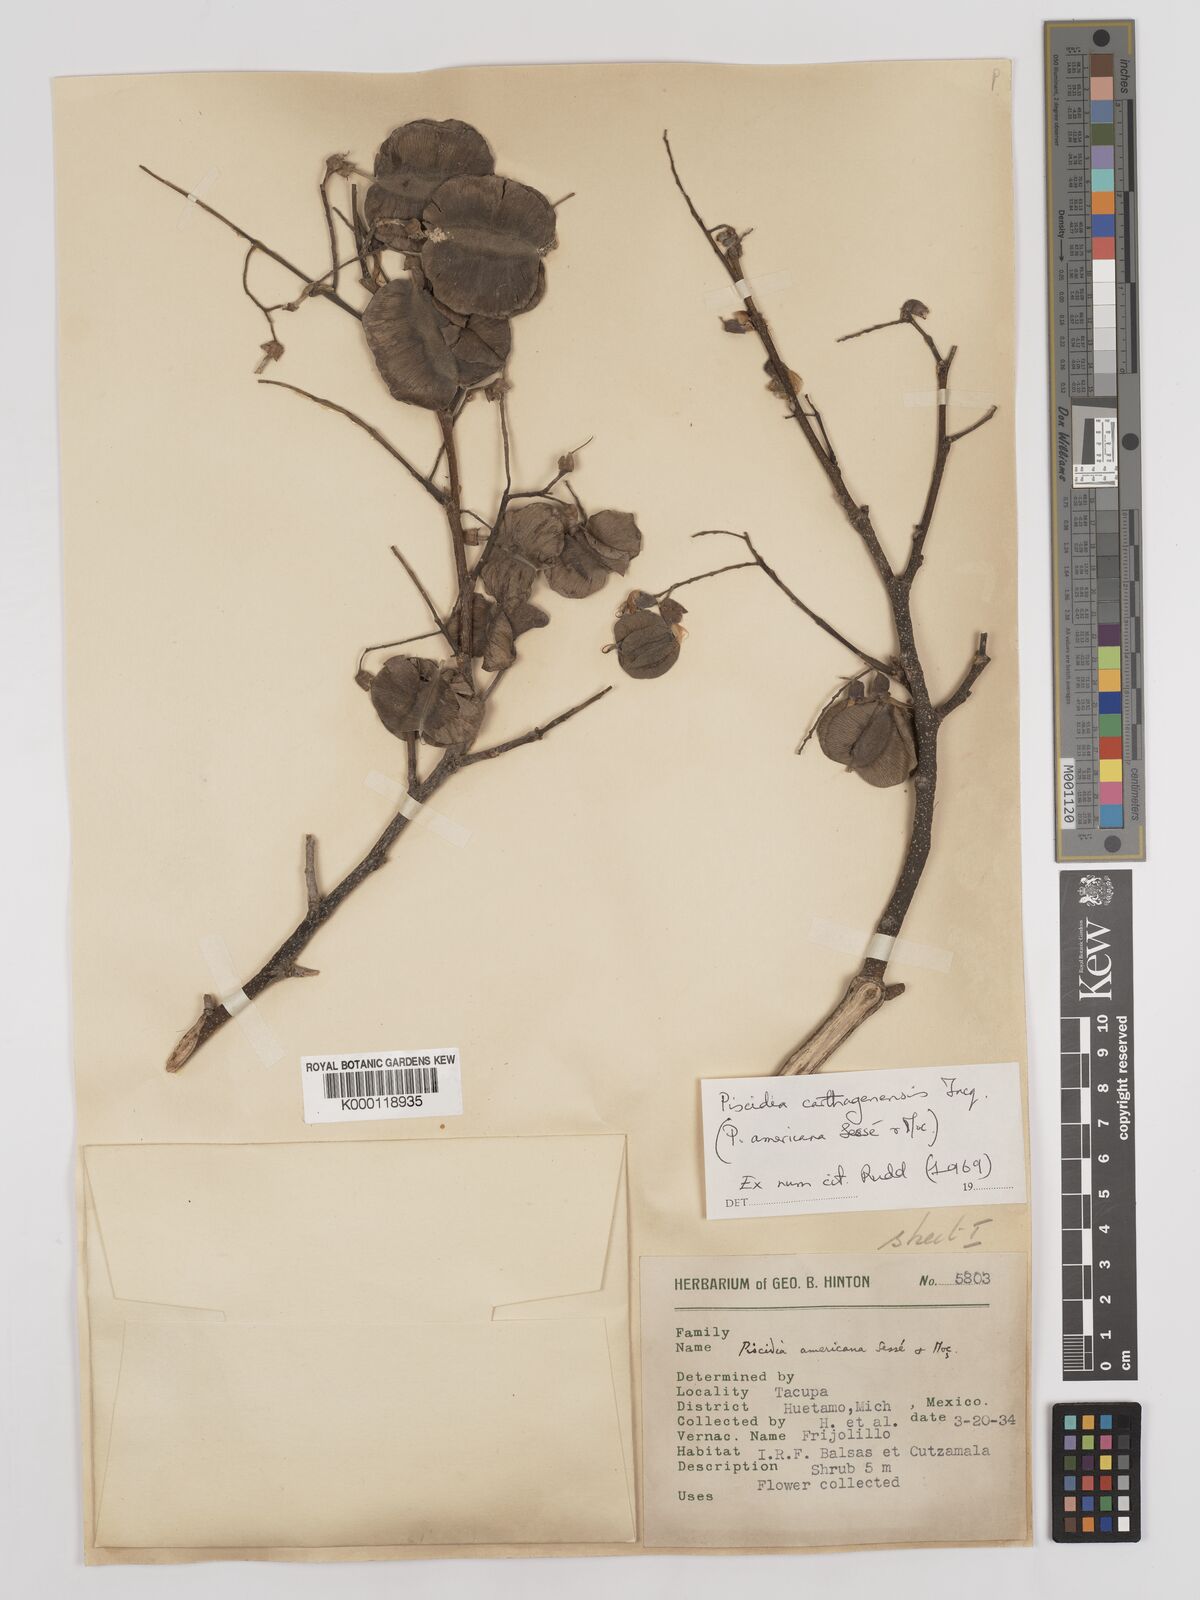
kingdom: Plantae
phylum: Tracheophyta
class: Magnoliopsida
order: Fabales
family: Fabaceae
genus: Piscidia
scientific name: Piscidia carthagenensis
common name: Stinkwood
